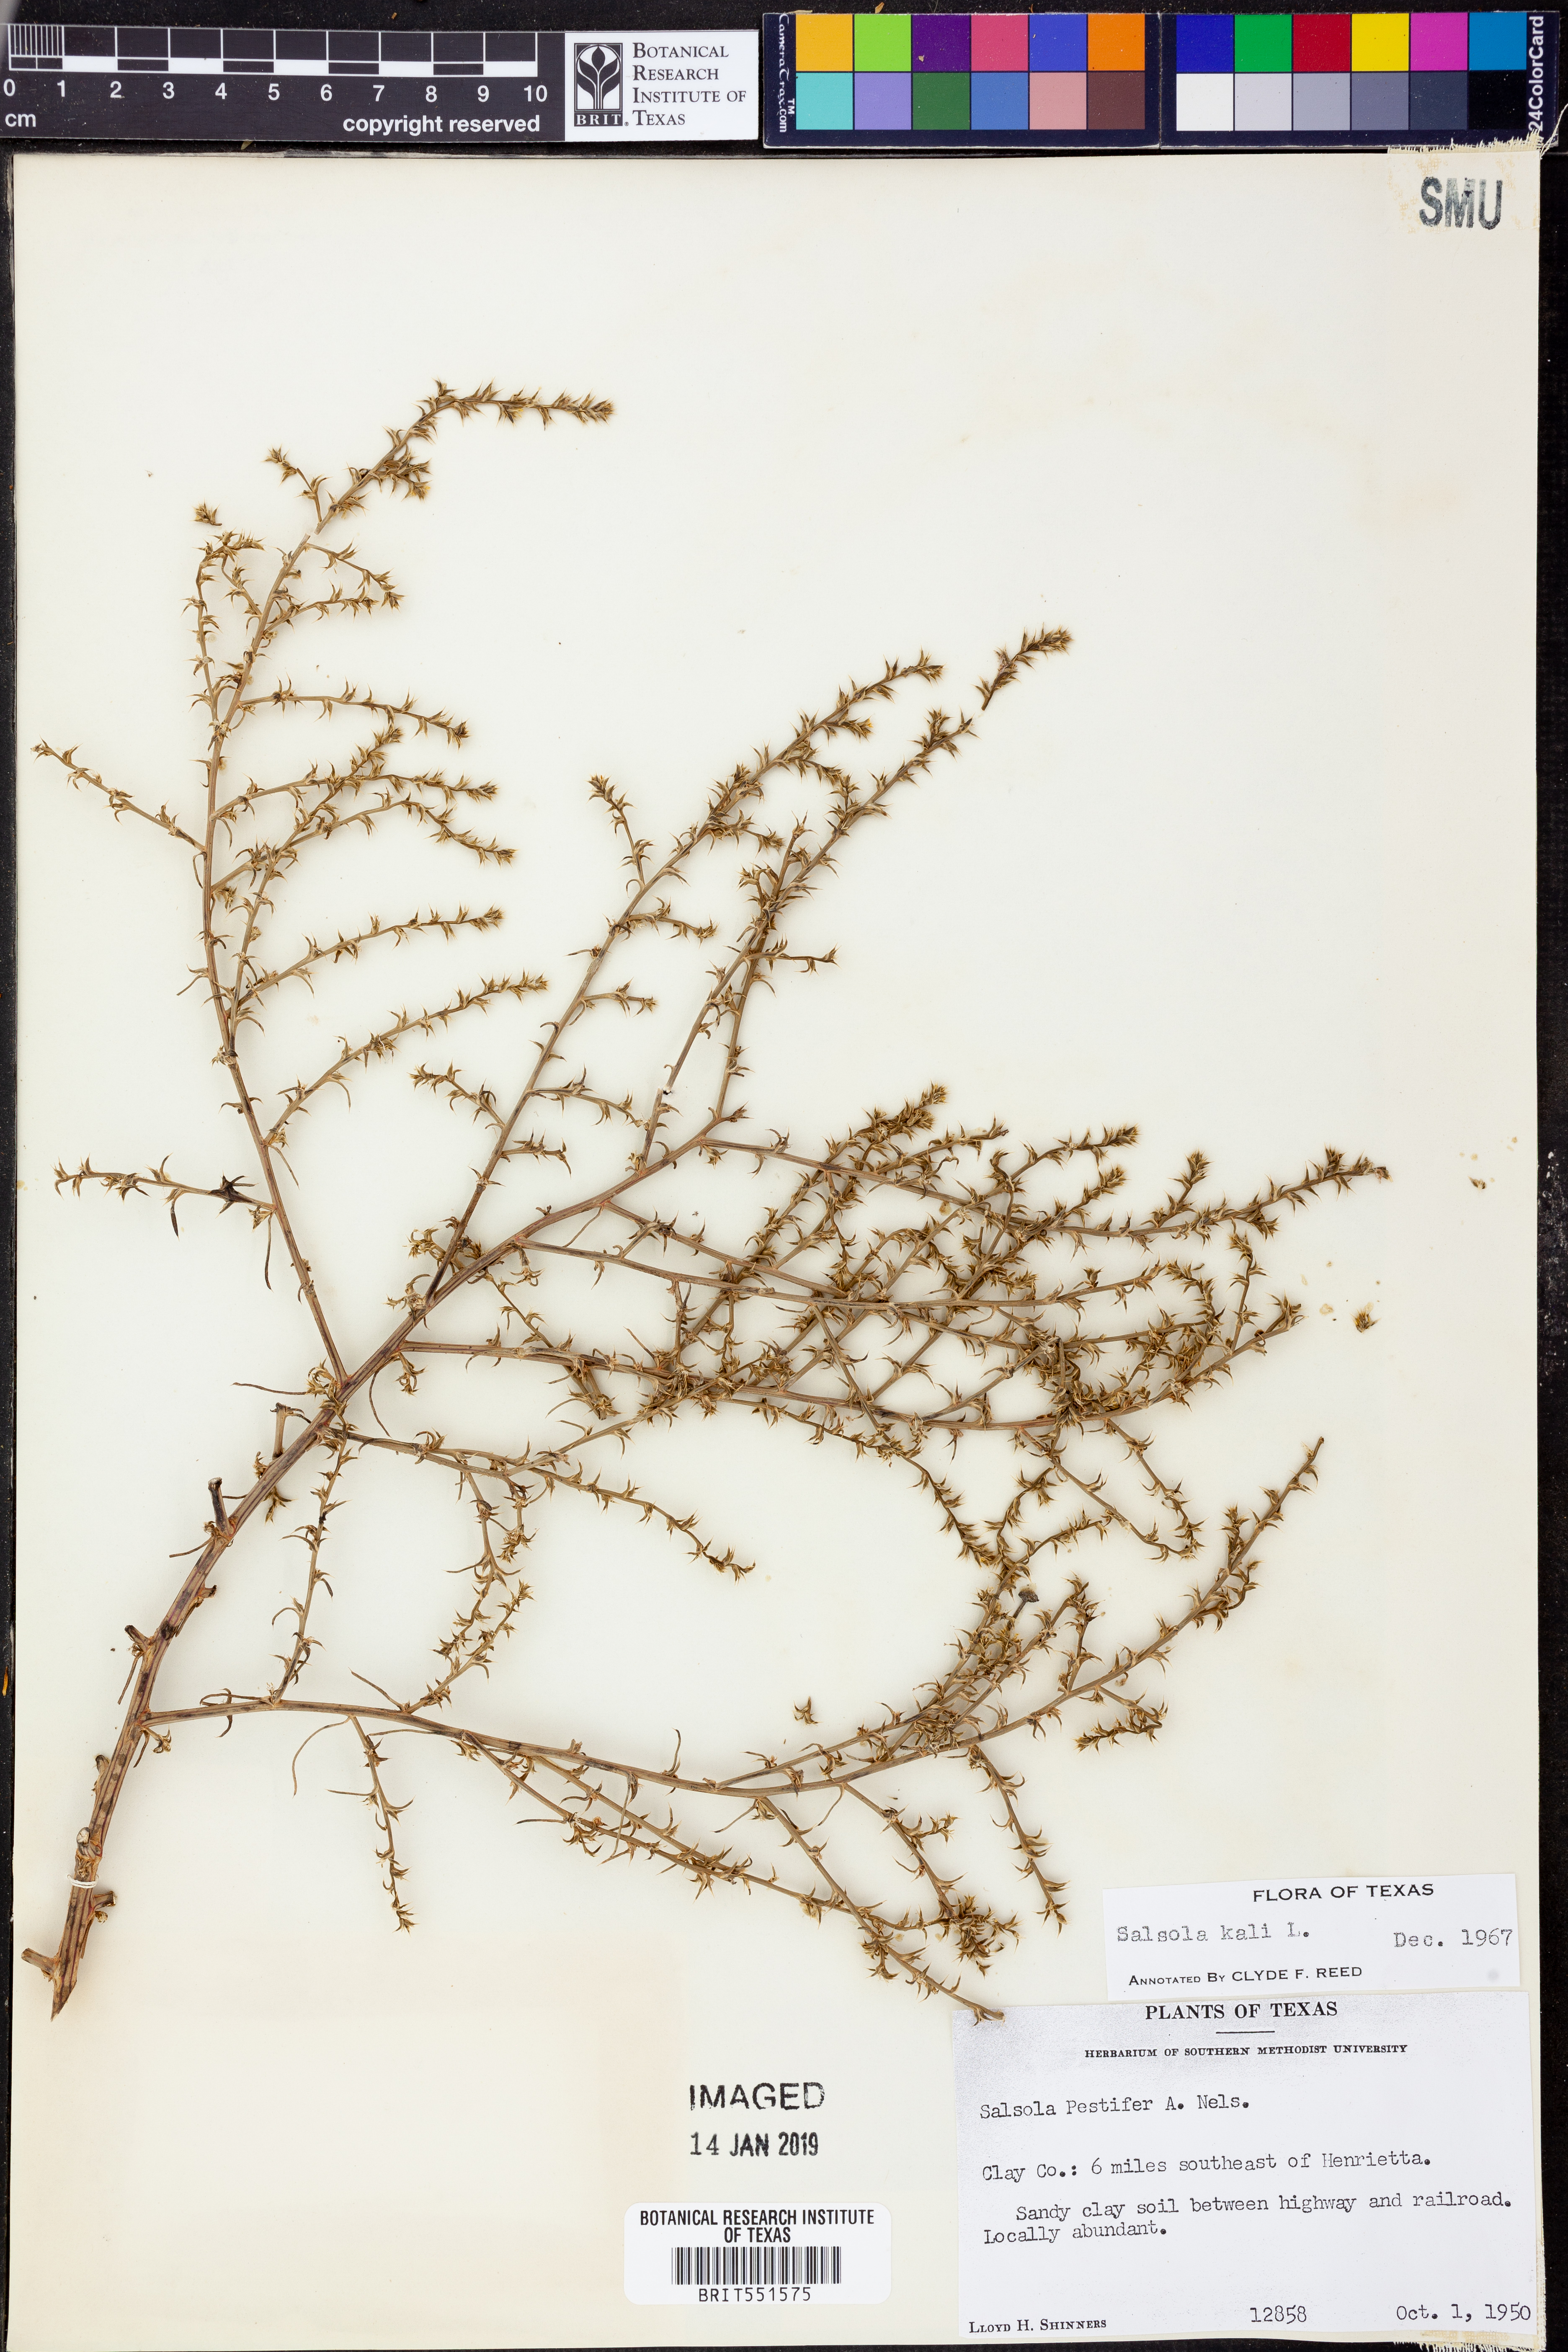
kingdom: Plantae
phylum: Tracheophyta
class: Magnoliopsida
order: Caryophyllales
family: Amaranthaceae
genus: Salsola
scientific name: Salsola kali
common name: Saltwort
